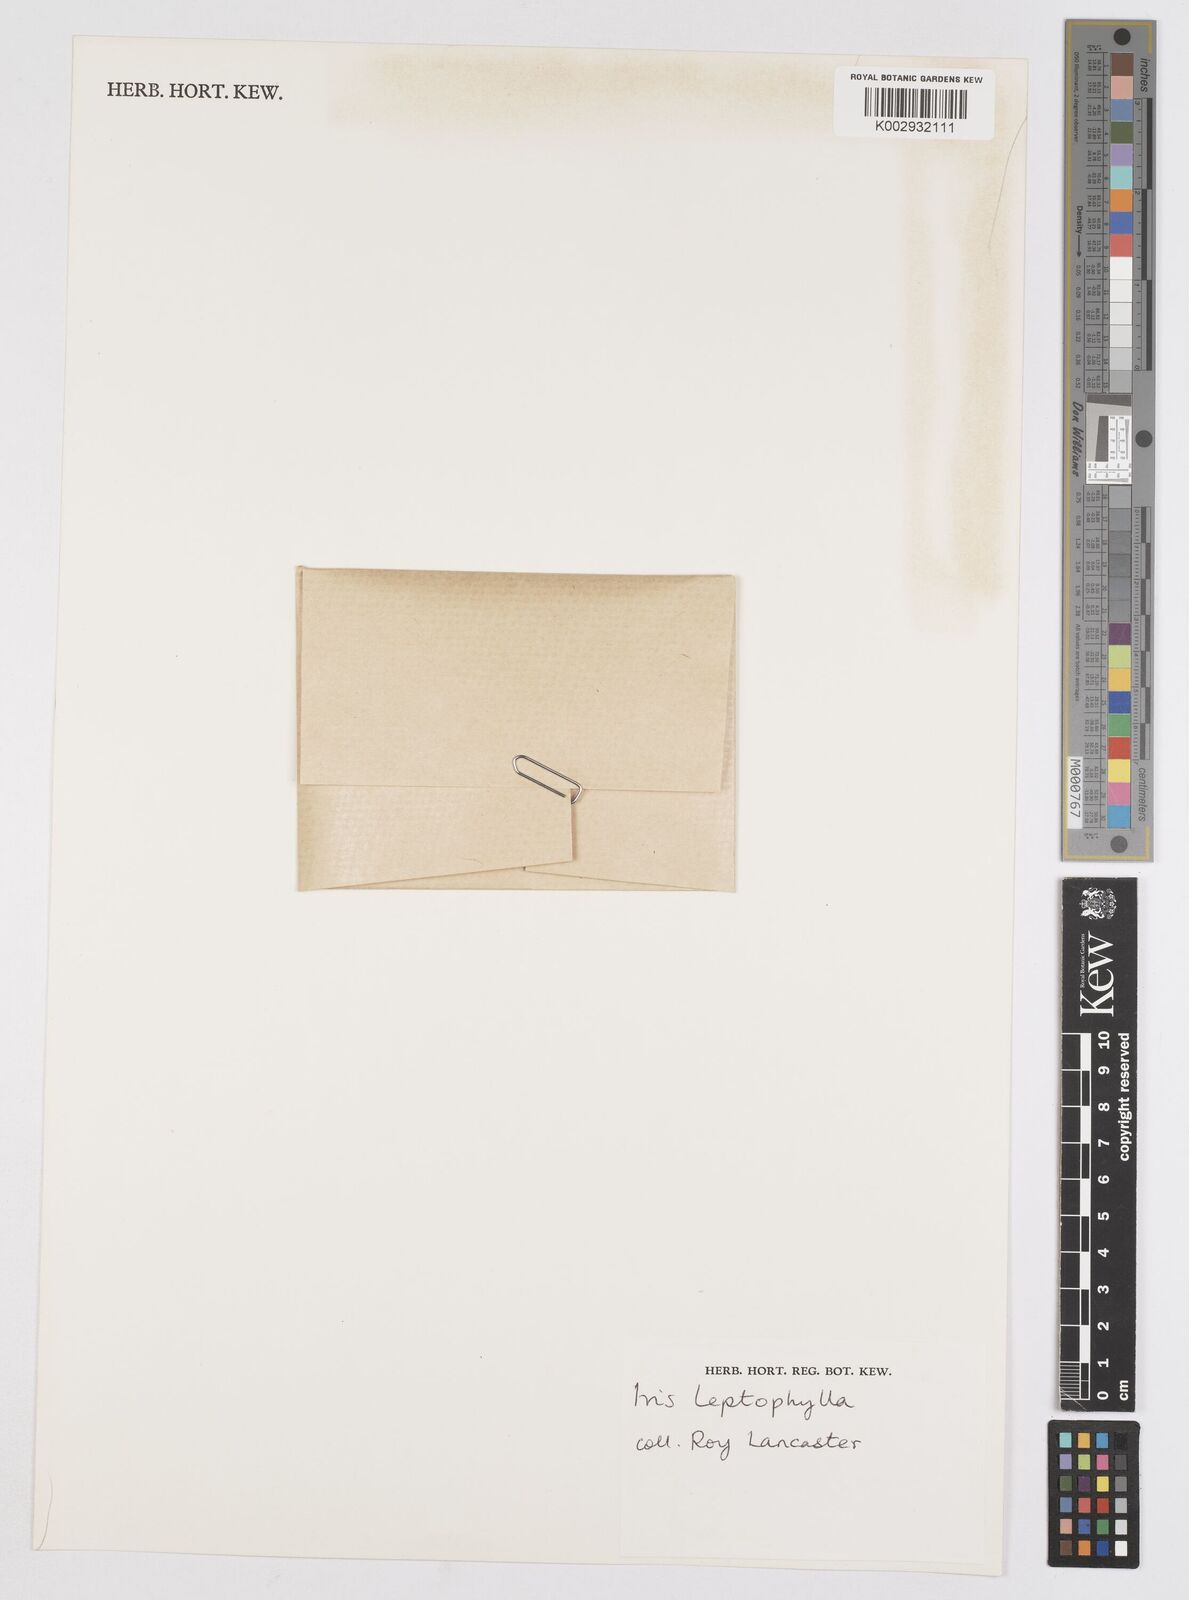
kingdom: Plantae
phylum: Tracheophyta
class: Liliopsida
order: Asparagales
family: Iridaceae
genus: Iris
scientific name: Iris leptophylla
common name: Thin-leaf iris
